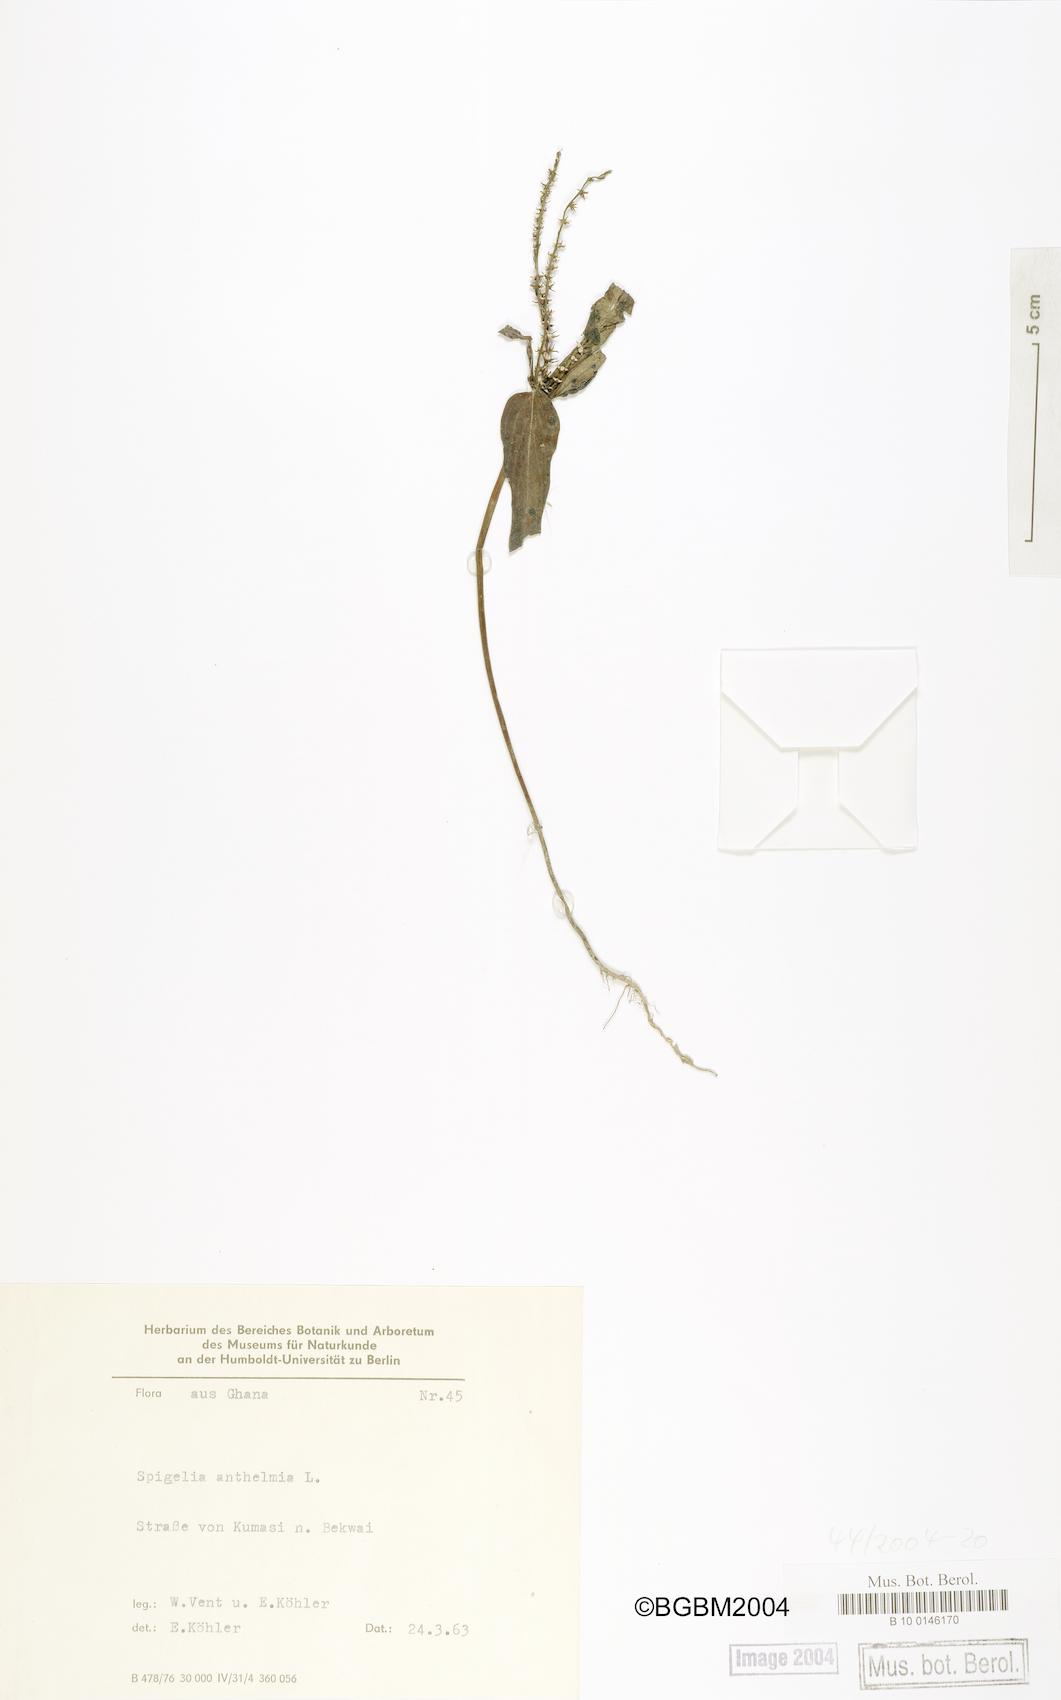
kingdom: Plantae
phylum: Tracheophyta
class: Magnoliopsida
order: Gentianales
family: Loganiaceae
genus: Spigelia
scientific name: Spigelia anthelmia
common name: West indian-pink
